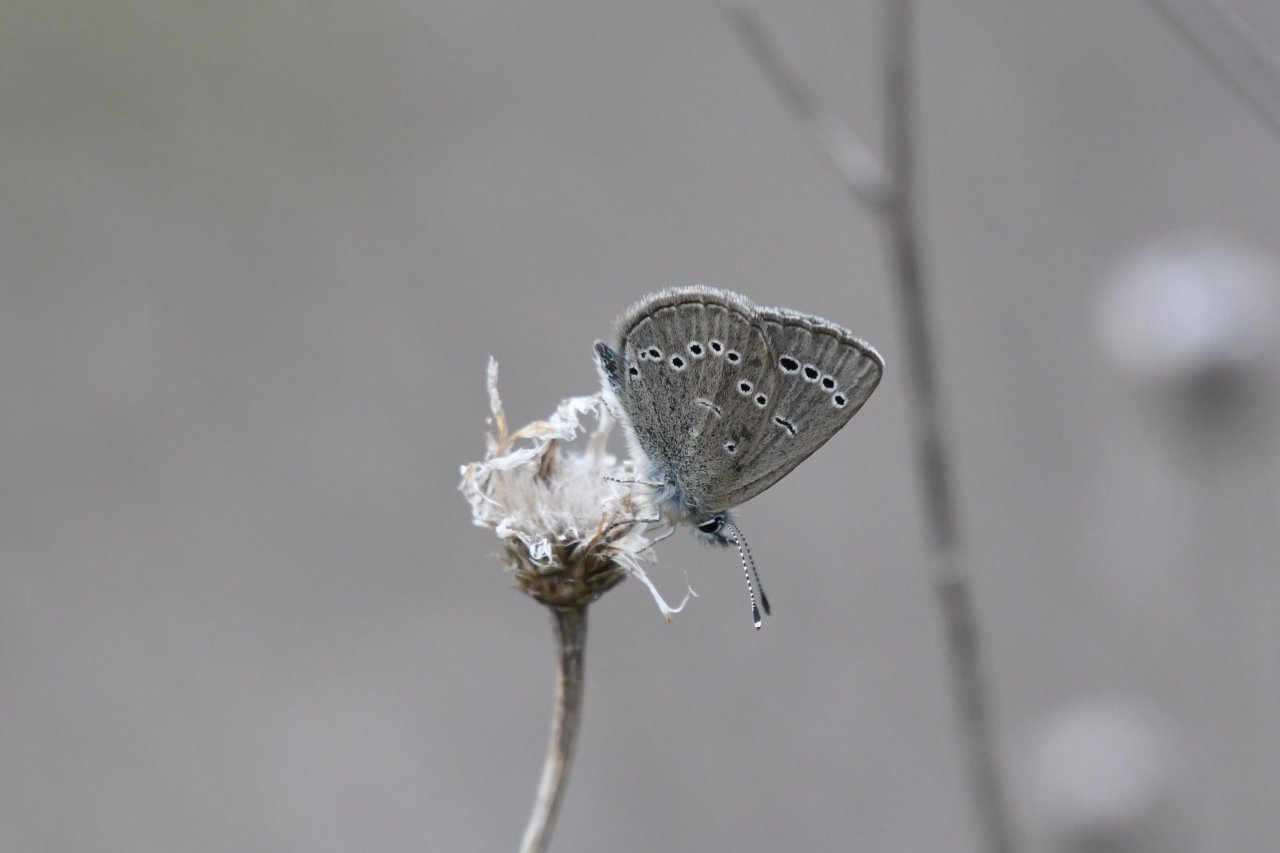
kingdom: Animalia
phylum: Arthropoda
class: Insecta
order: Lepidoptera
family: Lycaenidae
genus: Glaucopsyche
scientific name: Glaucopsyche lygdamus
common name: Silvery Blue
